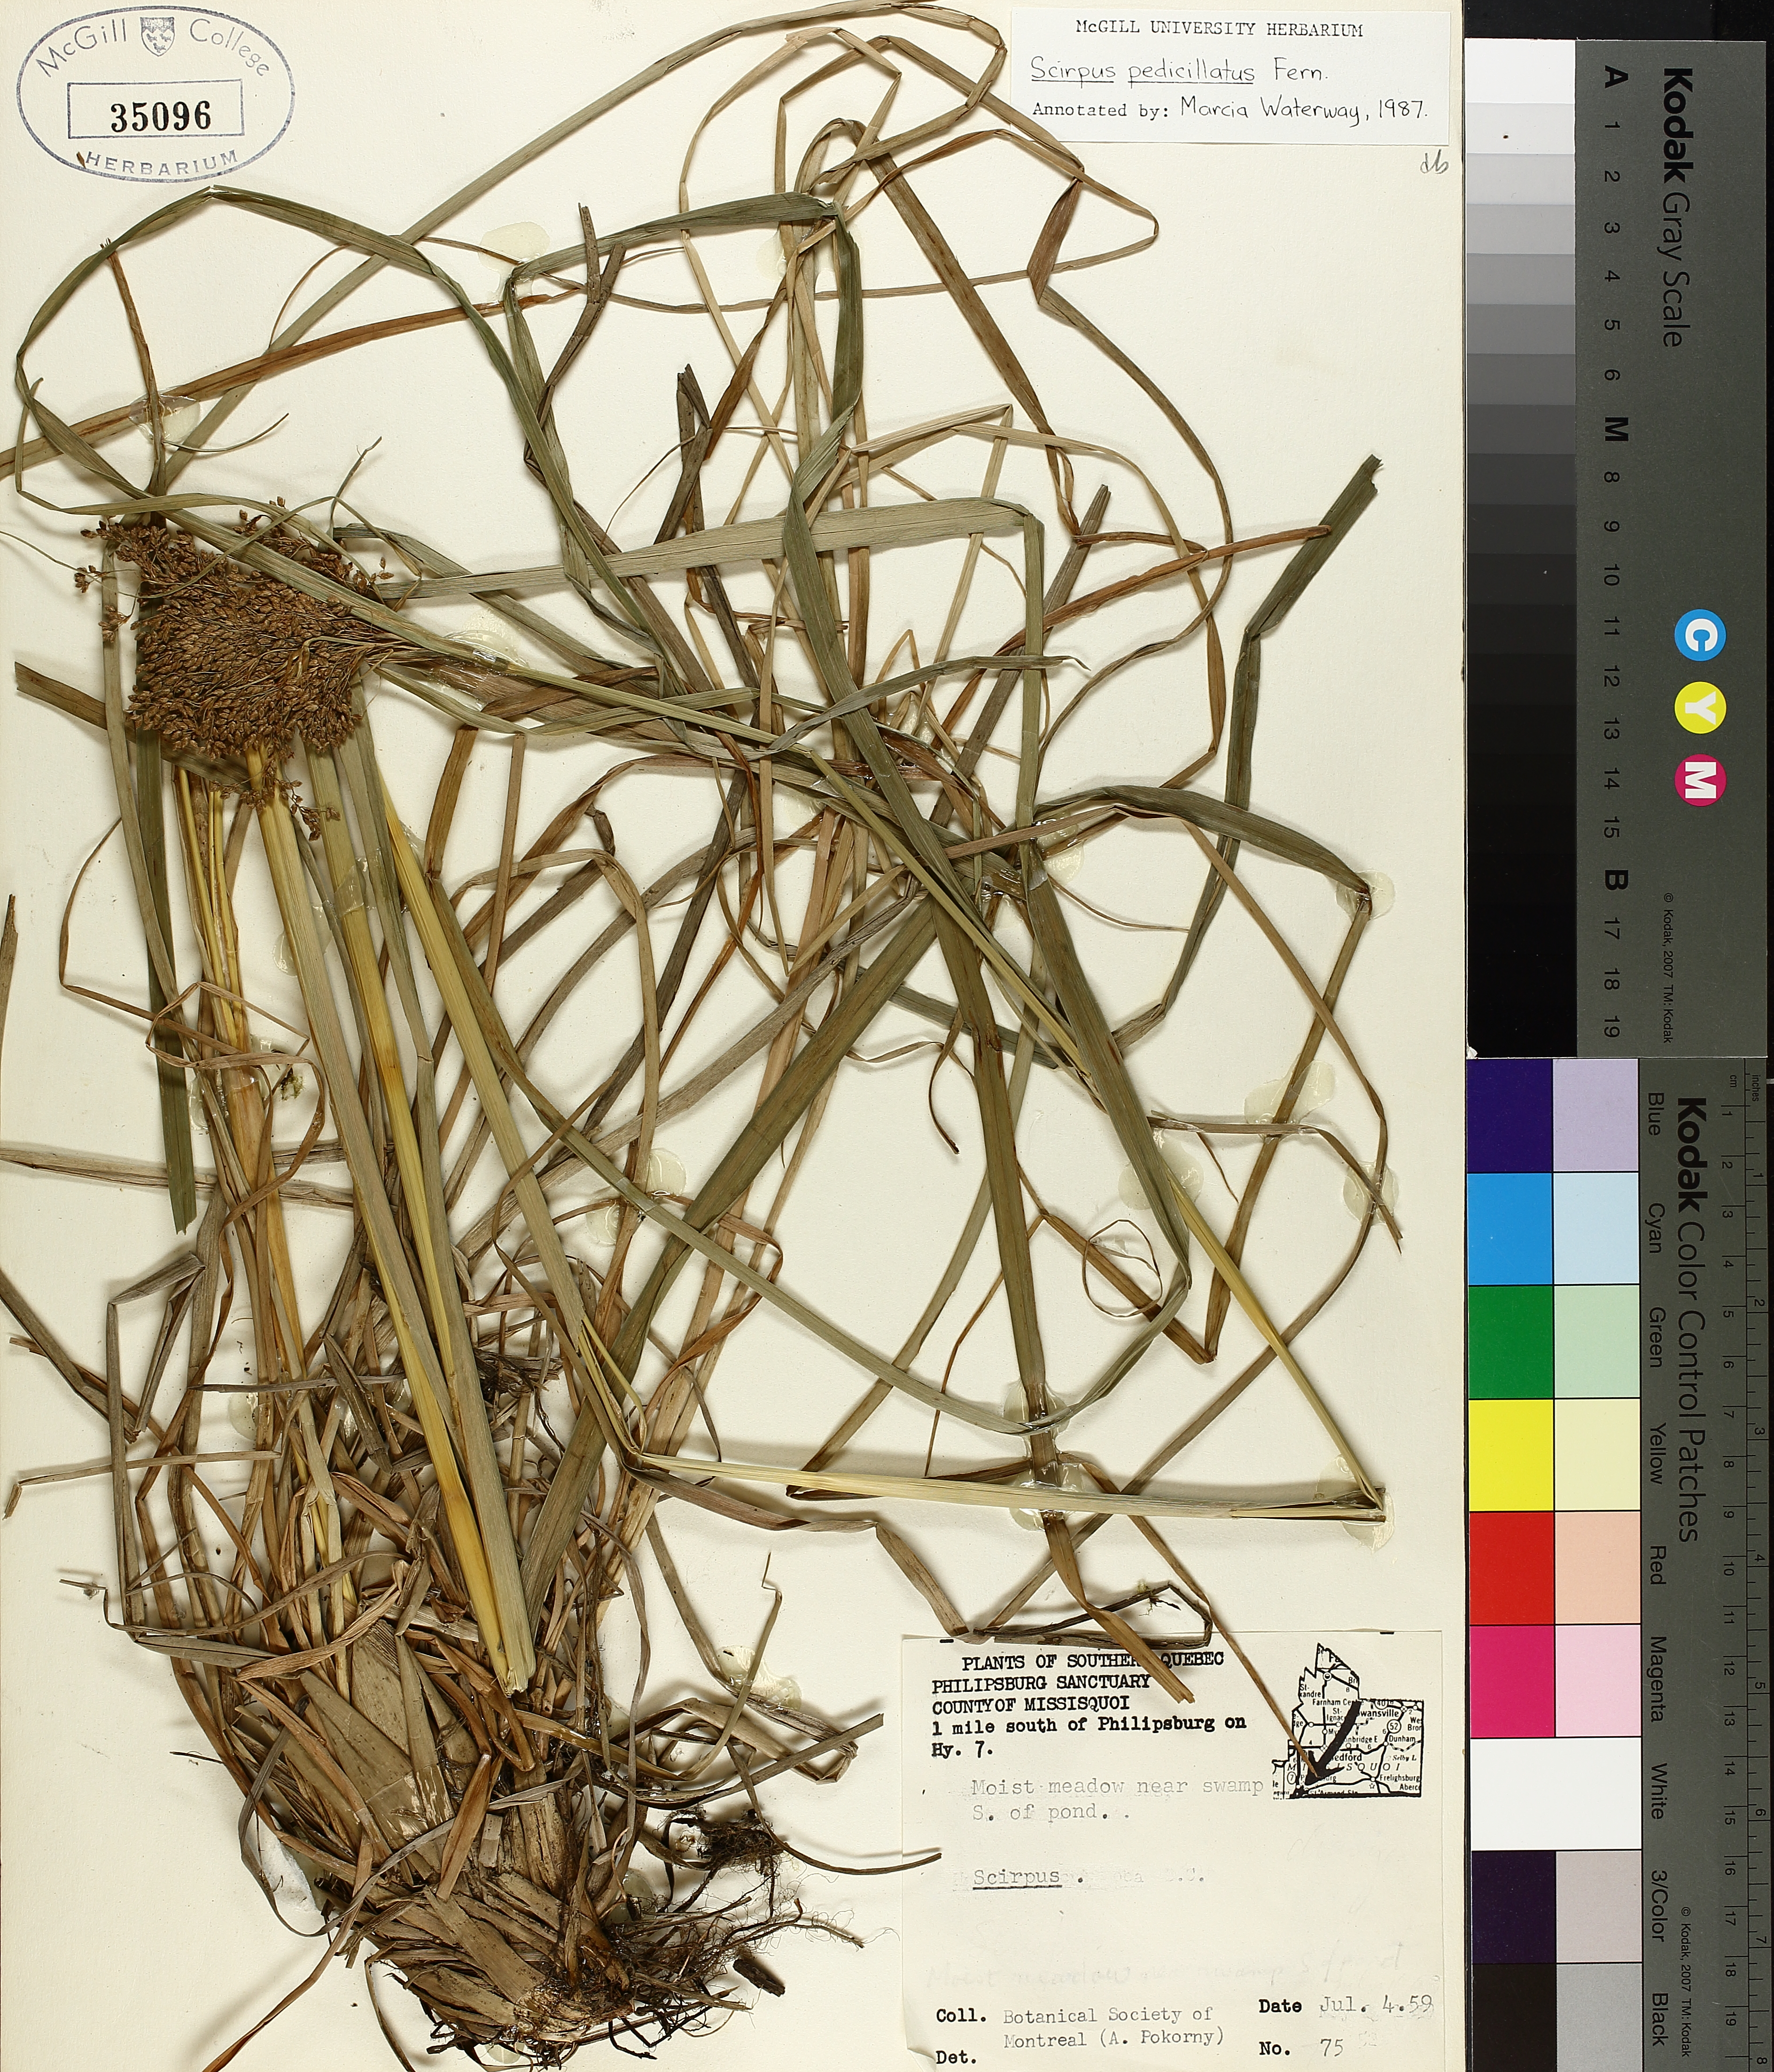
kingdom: Plantae
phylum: Tracheophyta
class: Liliopsida
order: Poales
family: Cyperaceae
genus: Scirpus
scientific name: Scirpus pedicellatus
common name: Pedicelled bulrush
